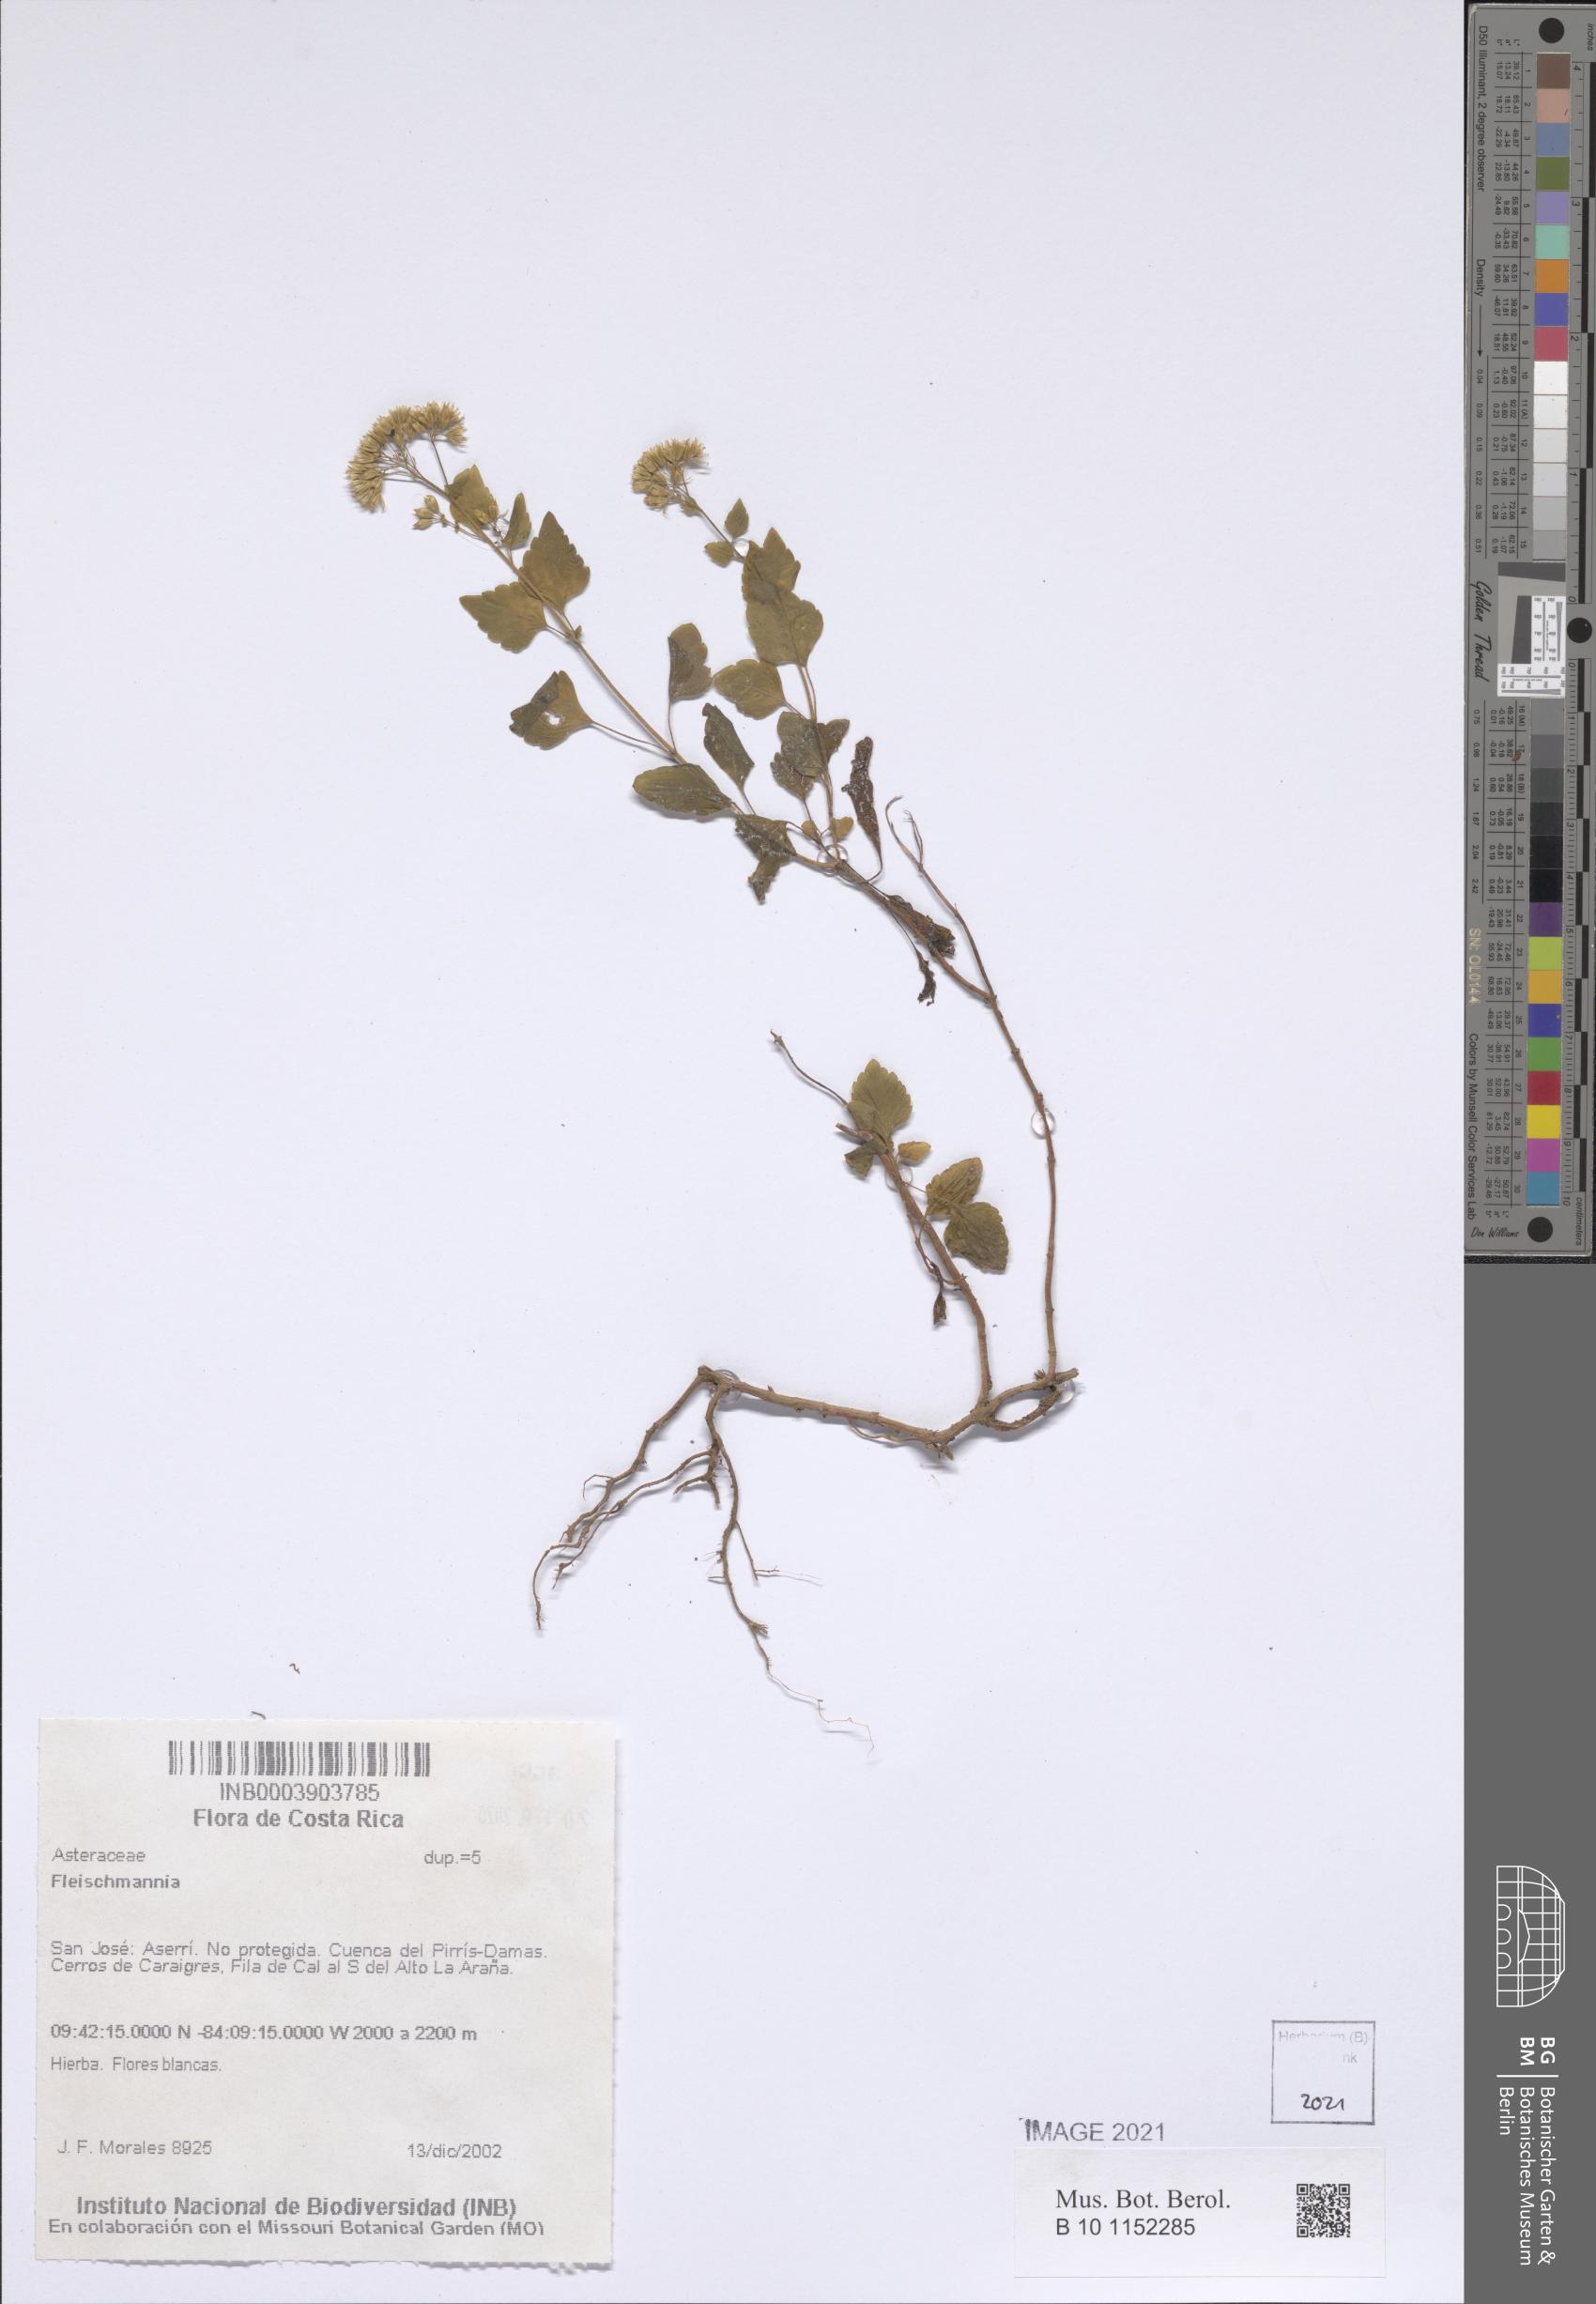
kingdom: Plantae
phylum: Tracheophyta
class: Magnoliopsida
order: Asterales
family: Asteraceae
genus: Fleischmannia
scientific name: Fleischmannia
